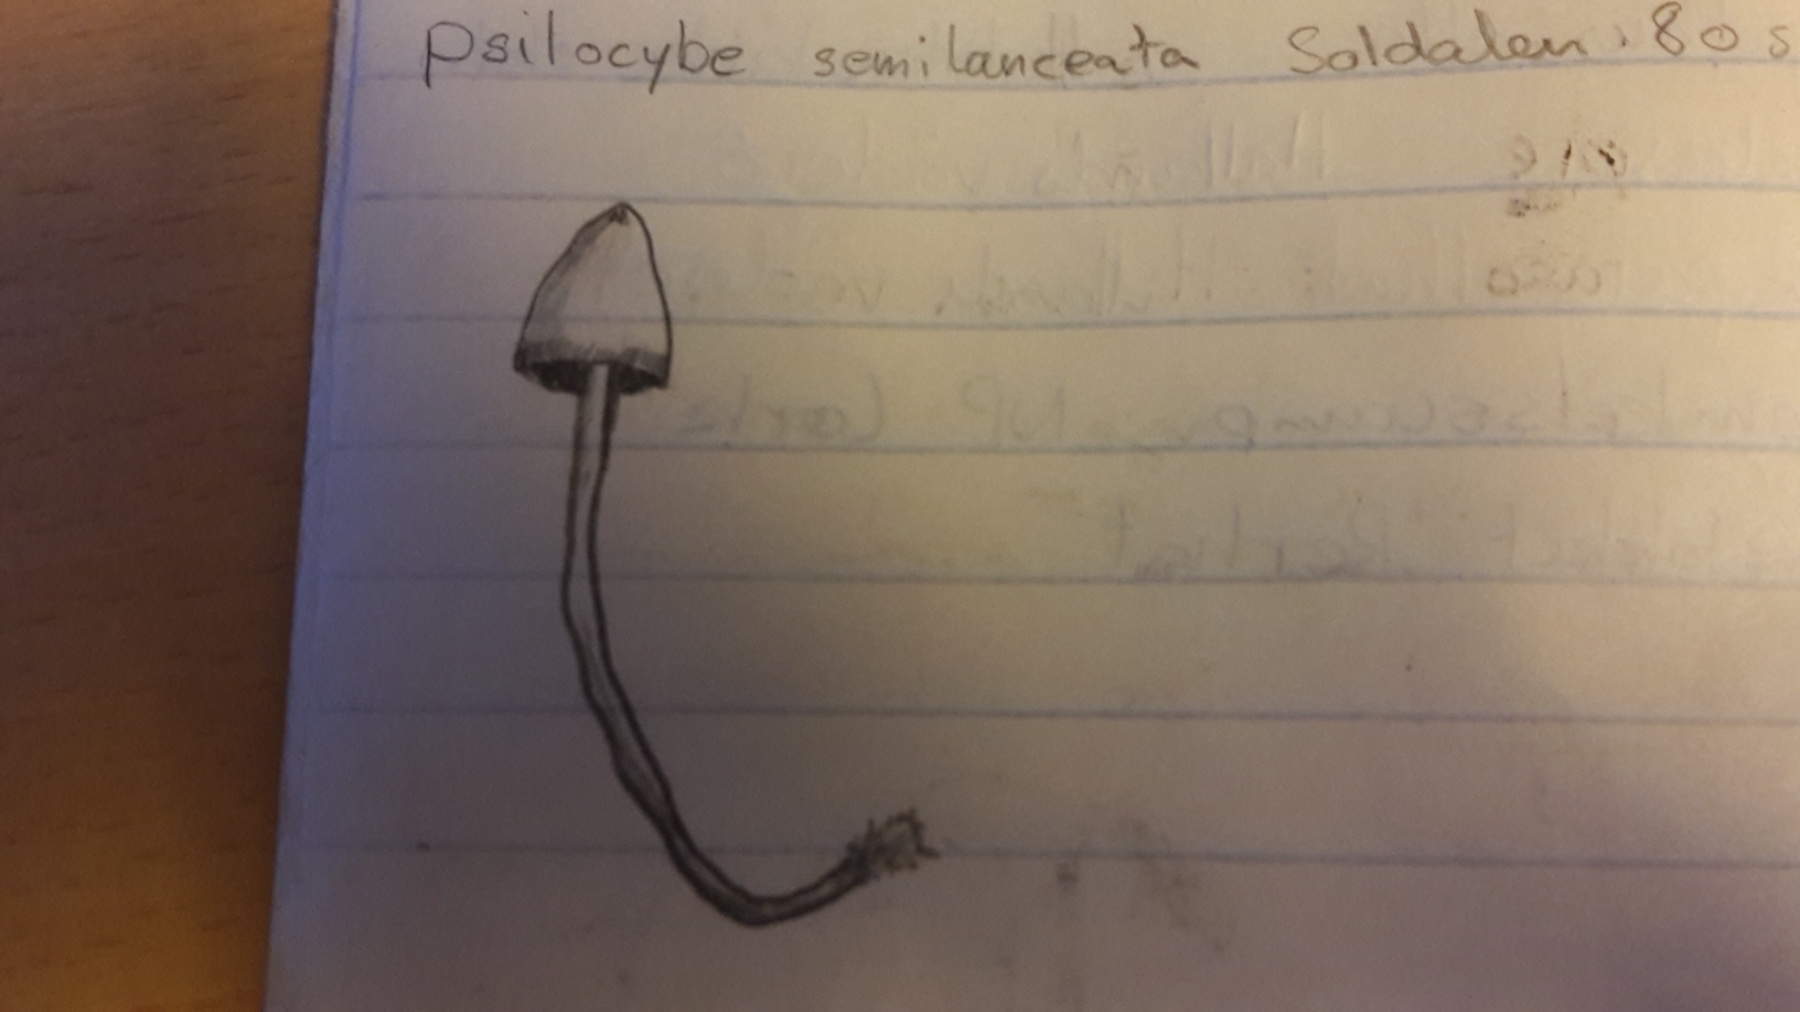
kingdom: Fungi
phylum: Basidiomycota
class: Agaricomycetes
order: Agaricales
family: Hymenogastraceae
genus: Psilocybe
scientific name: Psilocybe semilanceata
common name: spids nøgenhat
